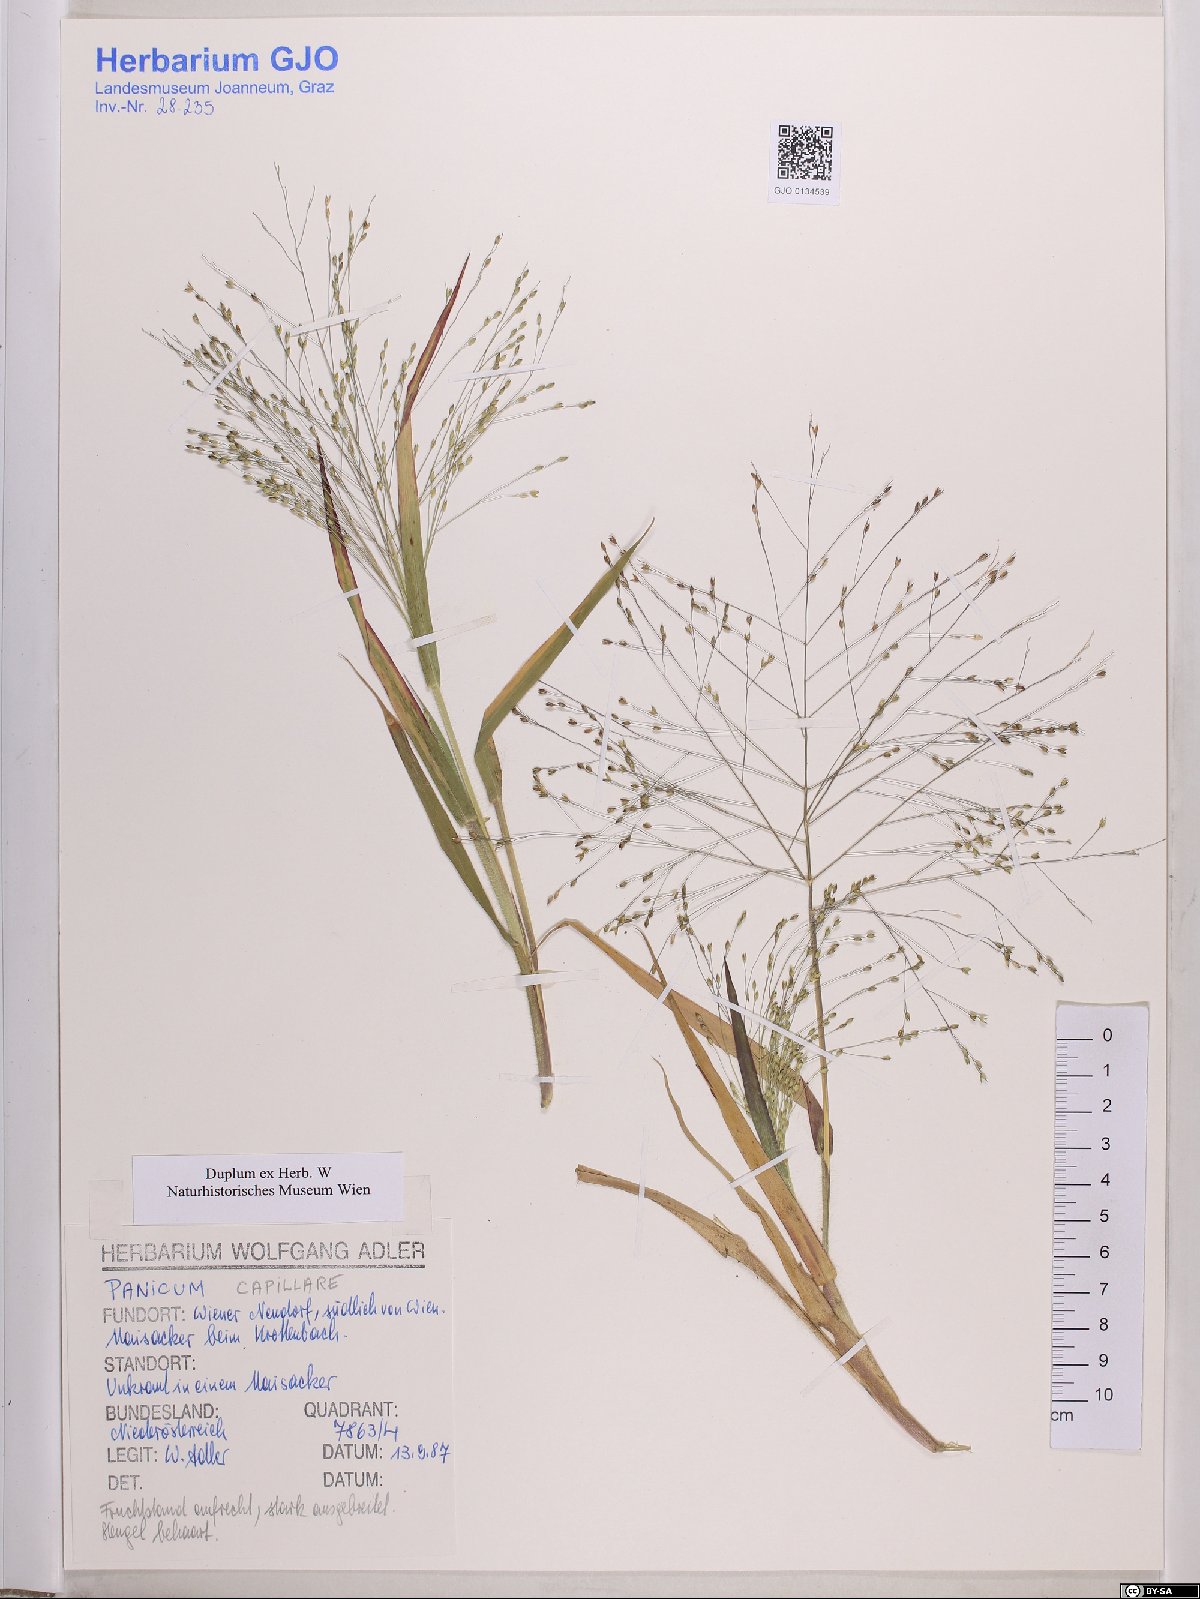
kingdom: Plantae
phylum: Tracheophyta
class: Liliopsida
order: Poales
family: Poaceae
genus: Panicum
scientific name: Panicum capillare
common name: Witch-grass
